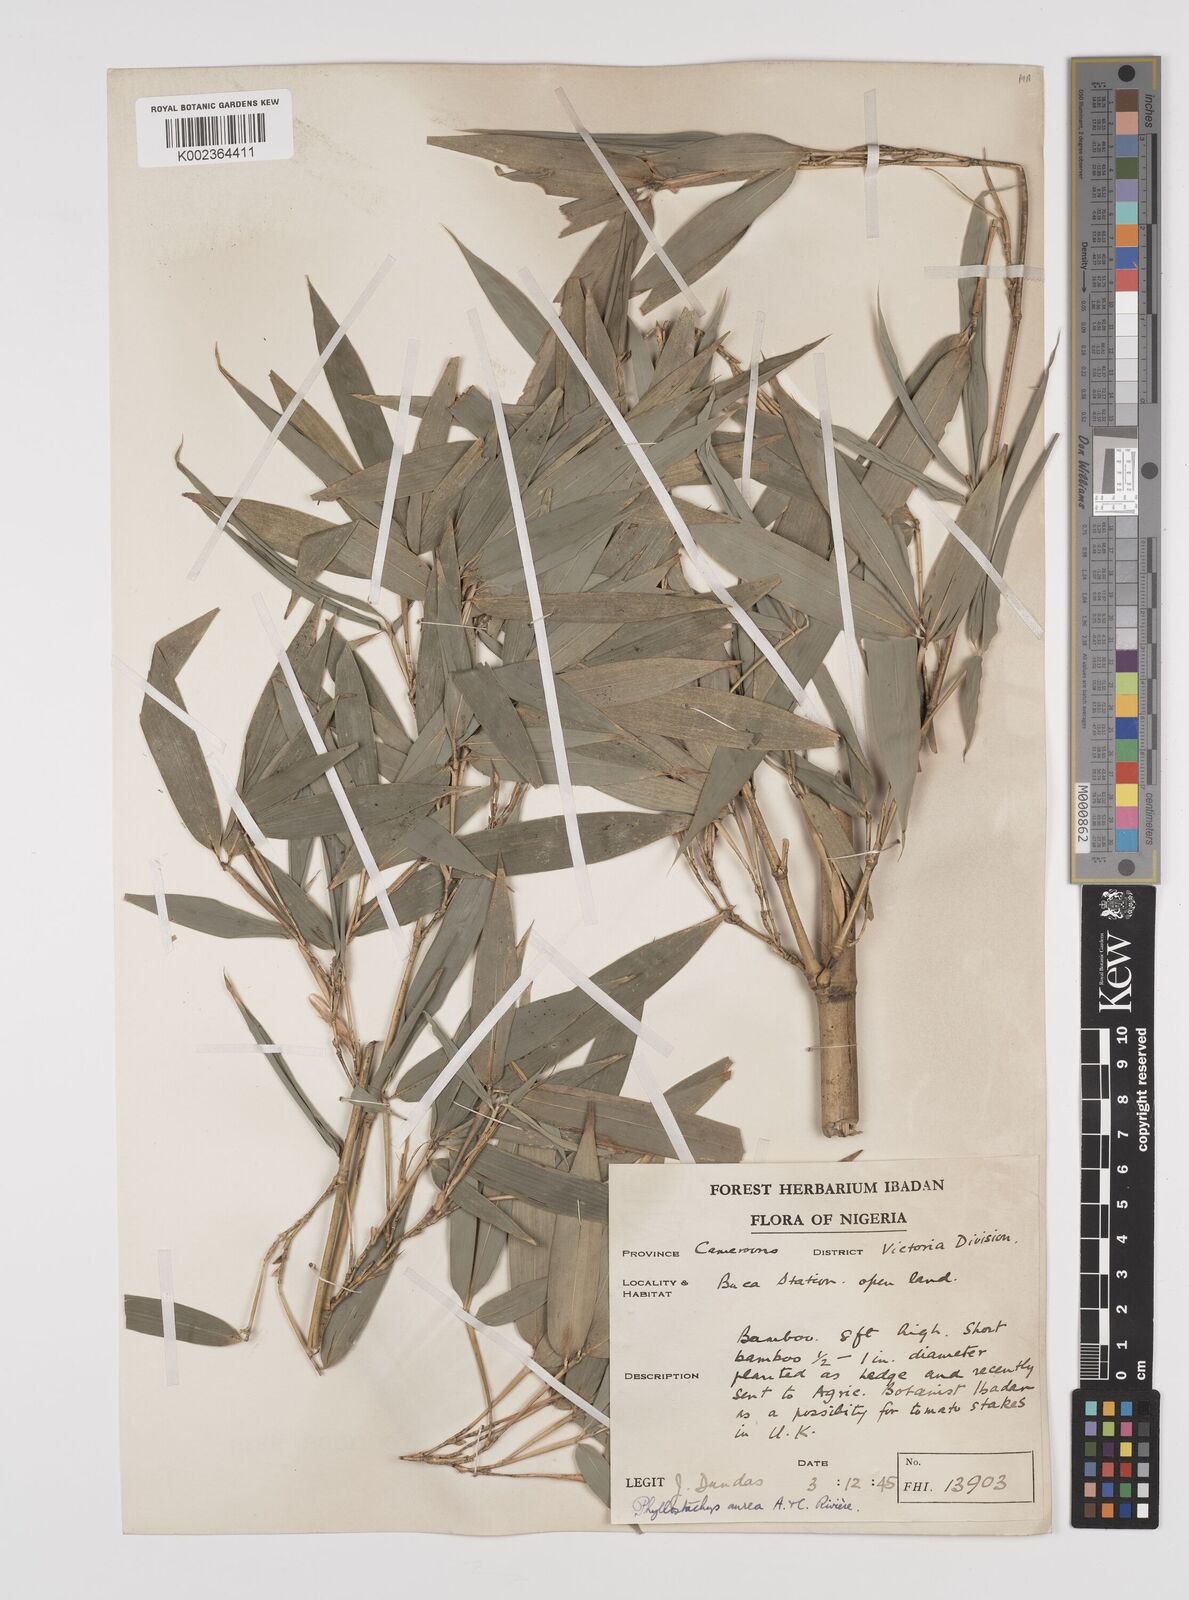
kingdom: Plantae
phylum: Tracheophyta
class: Liliopsida
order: Poales
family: Poaceae
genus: Phyllostachys
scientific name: Phyllostachys aurea
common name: Golden bamboo
